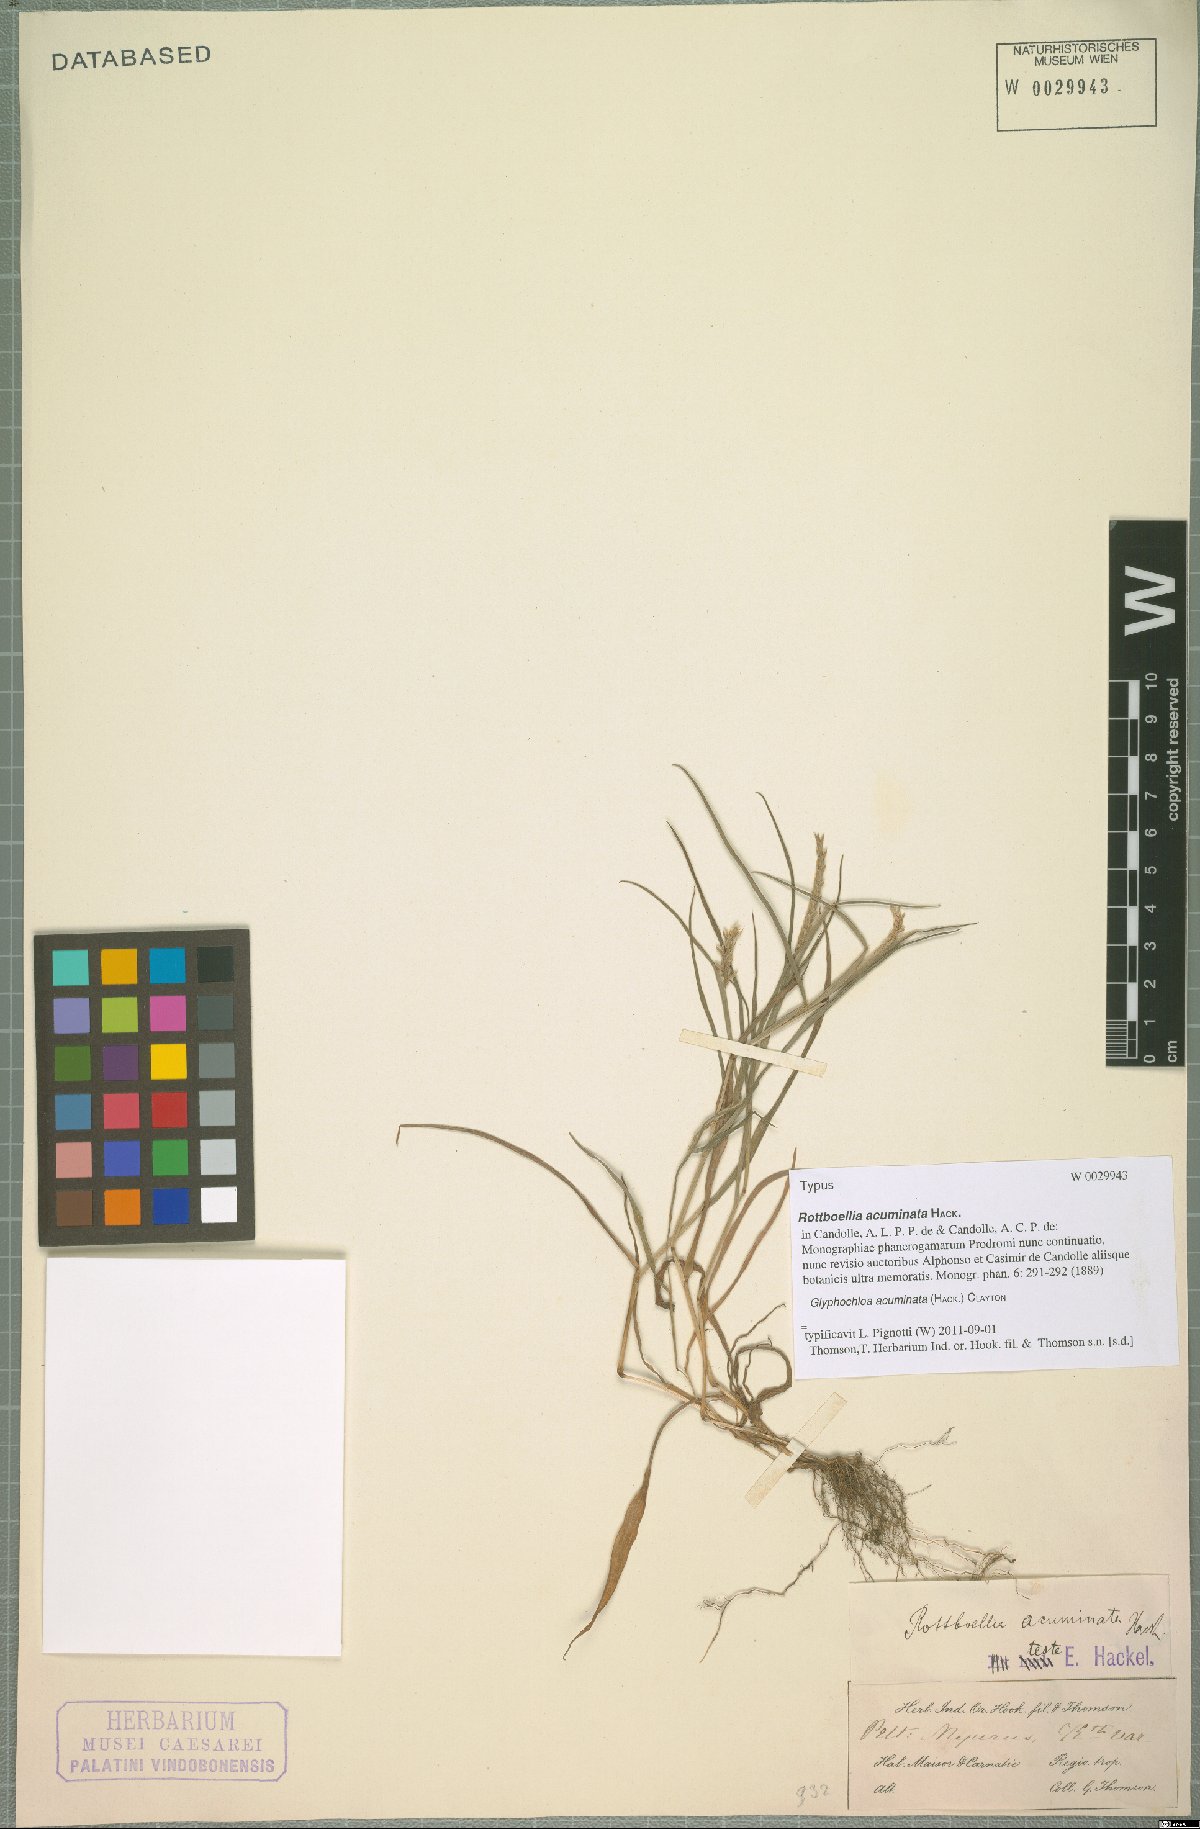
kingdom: Plantae
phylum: Tracheophyta
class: Liliopsida
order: Poales
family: Poaceae
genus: Glyphochloa
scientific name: Glyphochloa acuminata
